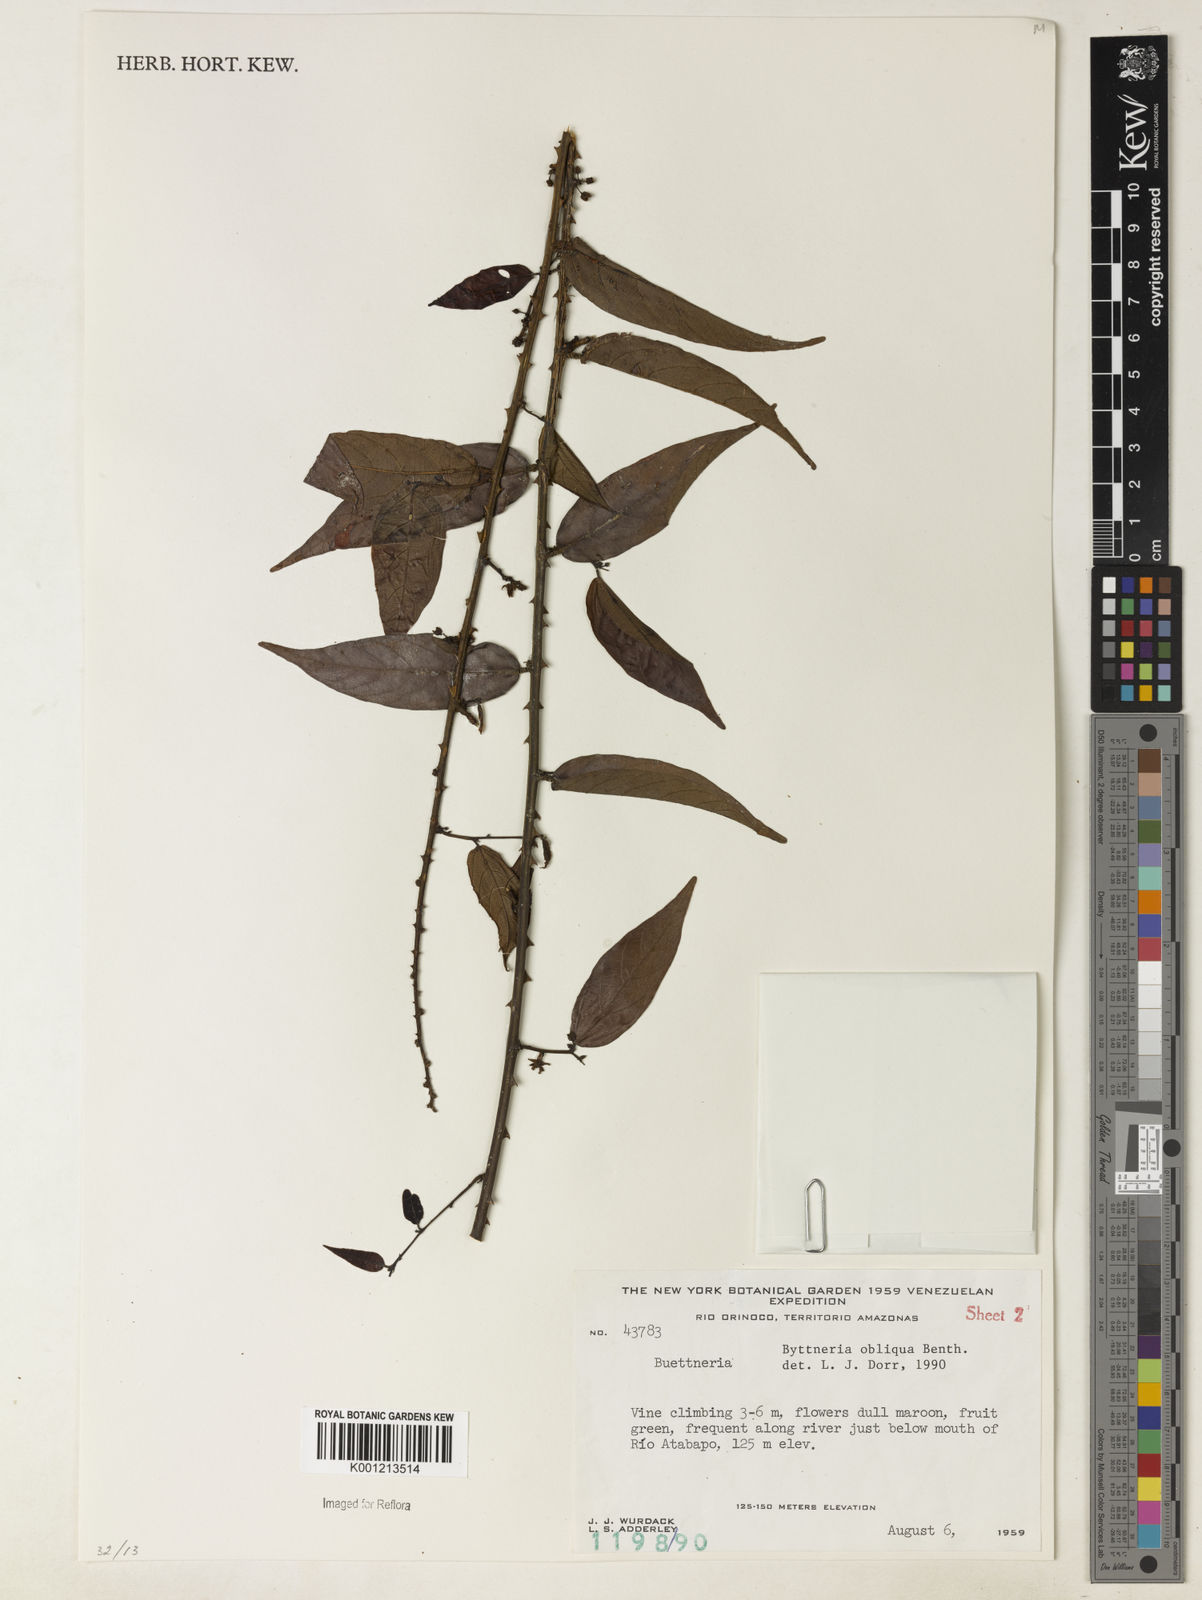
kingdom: Plantae
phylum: Tracheophyta
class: Magnoliopsida
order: Malvales
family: Malvaceae
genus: Byttneria
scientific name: Byttneria obliqua
